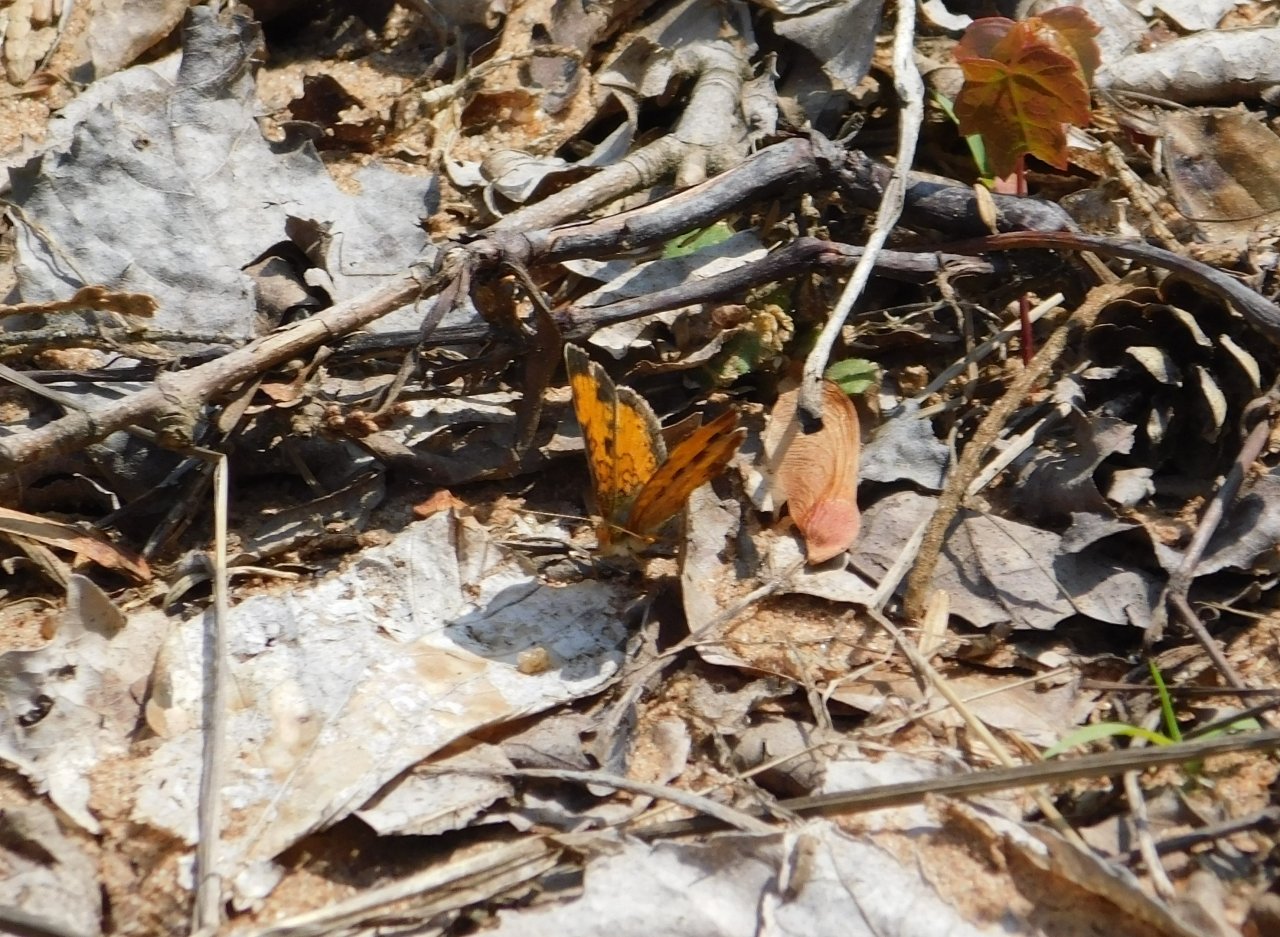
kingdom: Animalia
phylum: Arthropoda
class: Insecta
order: Lepidoptera
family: Nymphalidae
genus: Phyciodes
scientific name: Phyciodes tharos
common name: Northern Crescent
